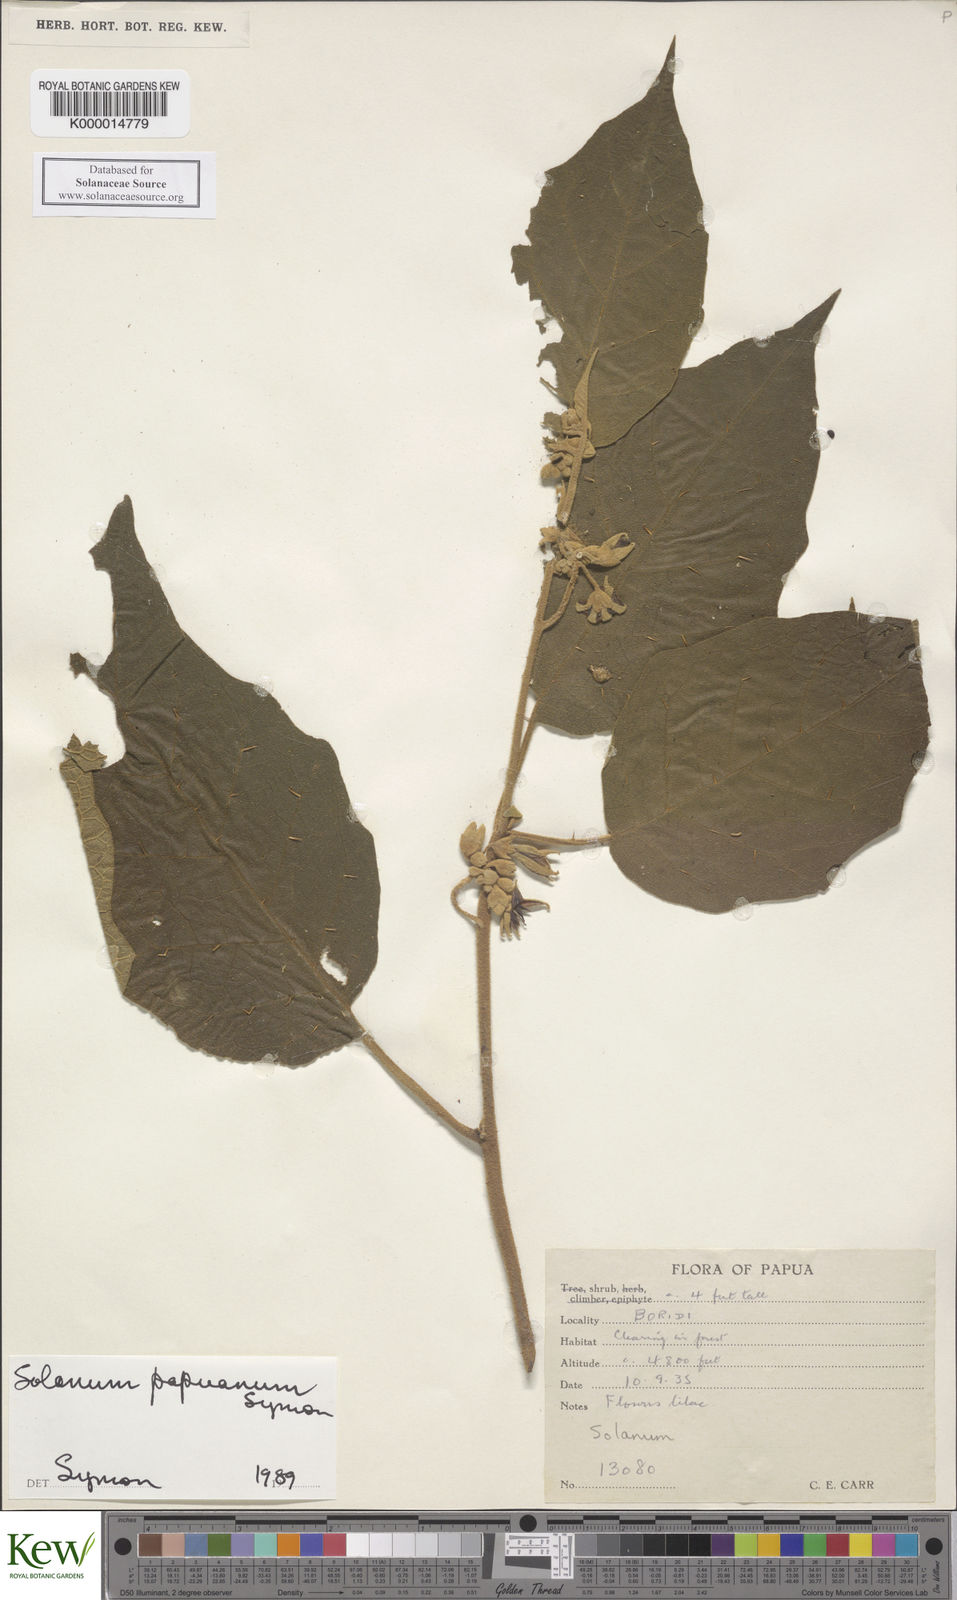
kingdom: Plantae
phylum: Tracheophyta
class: Magnoliopsida
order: Solanales
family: Solanaceae
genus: Solanum
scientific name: Solanum papuanum
